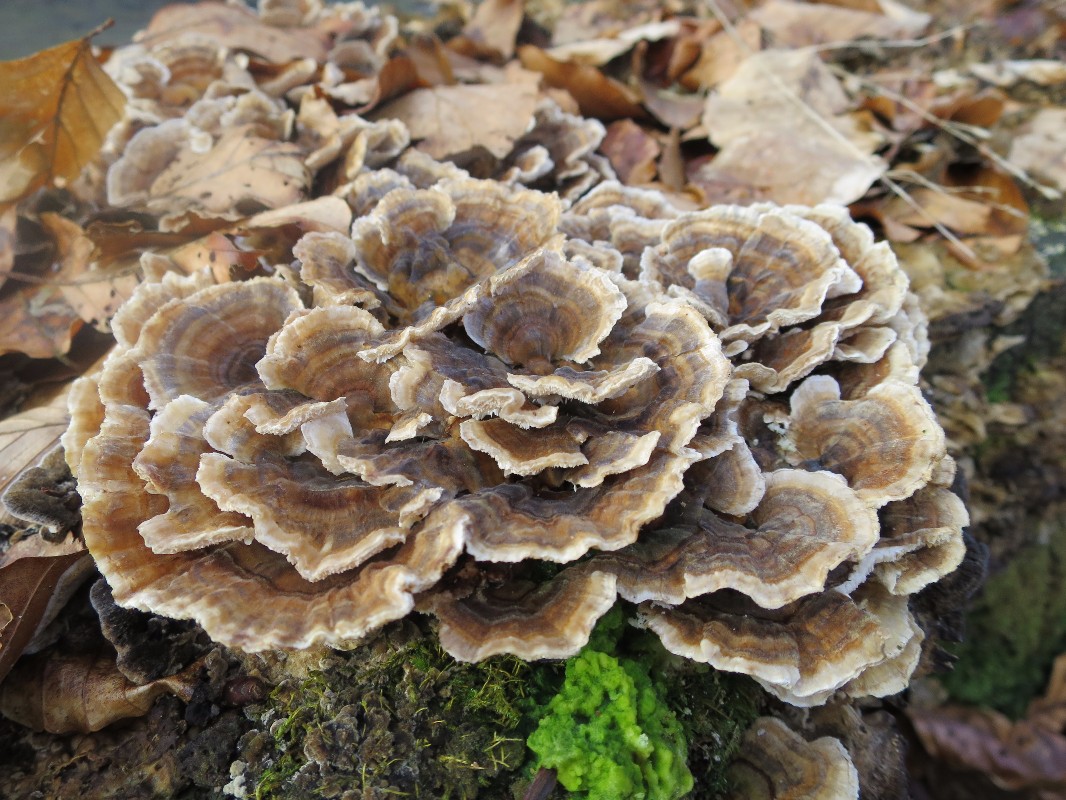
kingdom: Fungi
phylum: Basidiomycota
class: Agaricomycetes
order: Polyporales
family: Polyporaceae
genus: Trametes
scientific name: Trametes versicolor
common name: broget læderporesvamp
